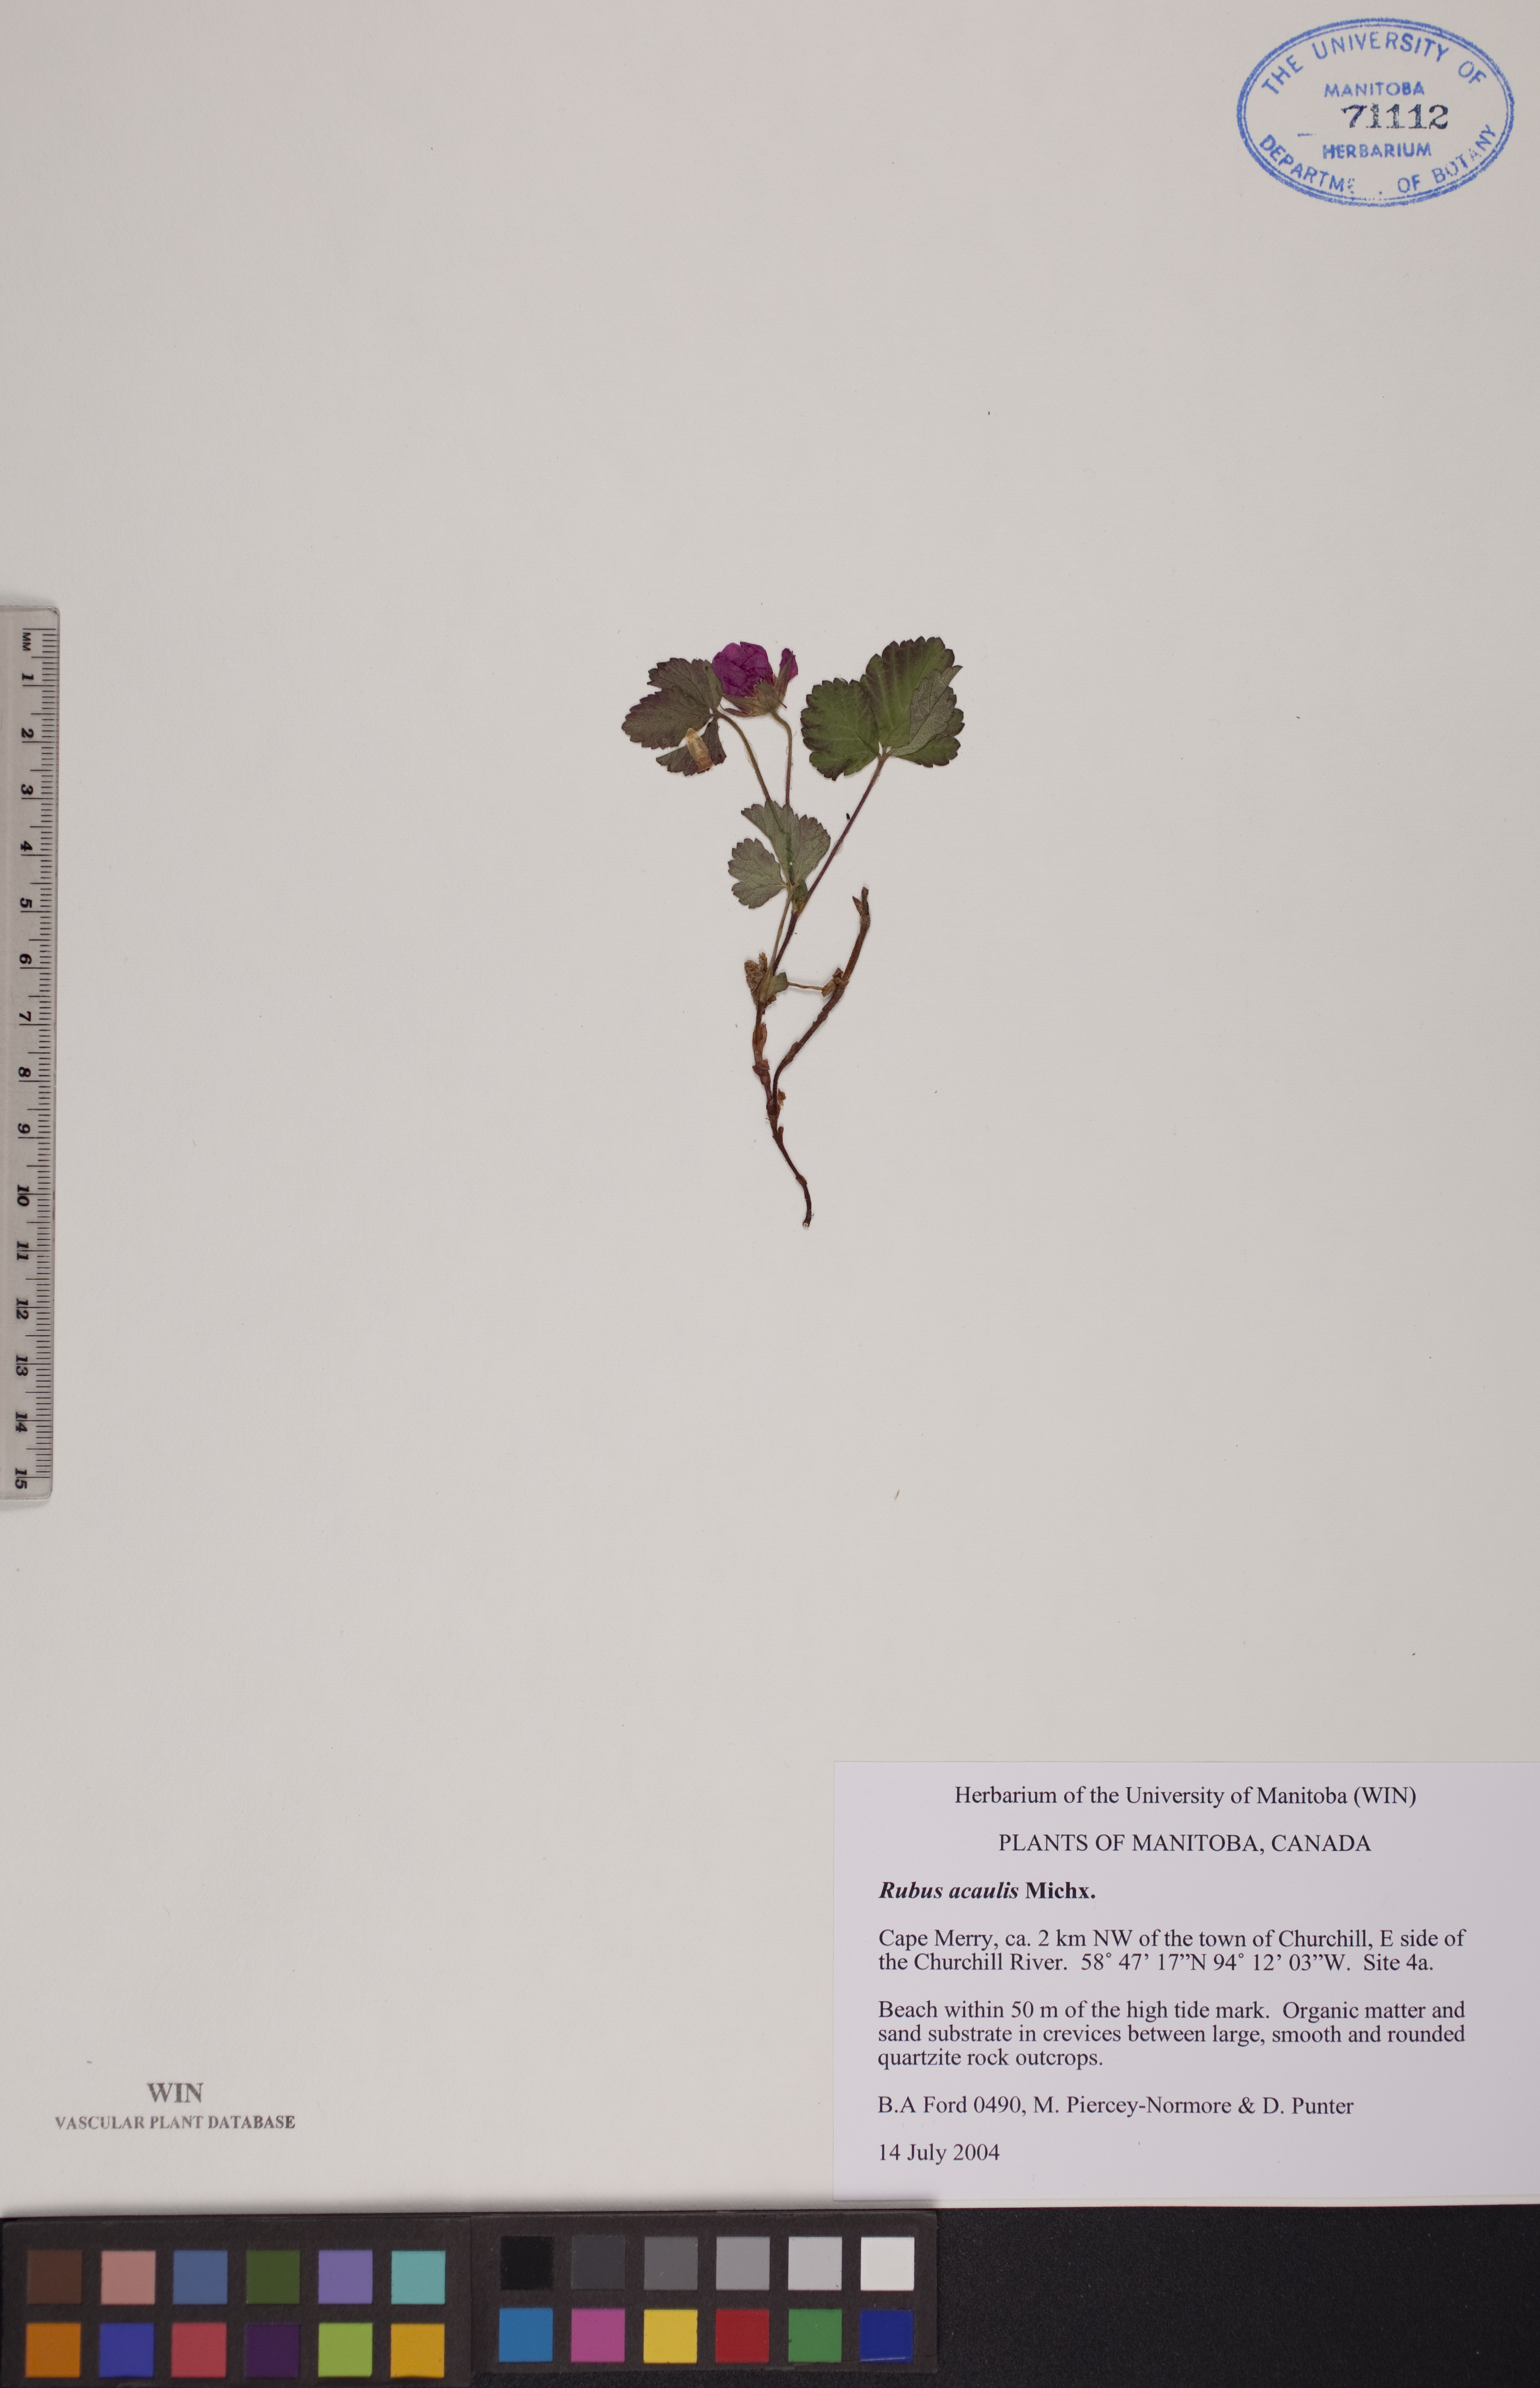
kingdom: Plantae
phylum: Tracheophyta
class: Magnoliopsida
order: Rosales
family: Rosaceae
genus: Rubus
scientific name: Rubus arcticus
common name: Arctic bramble
